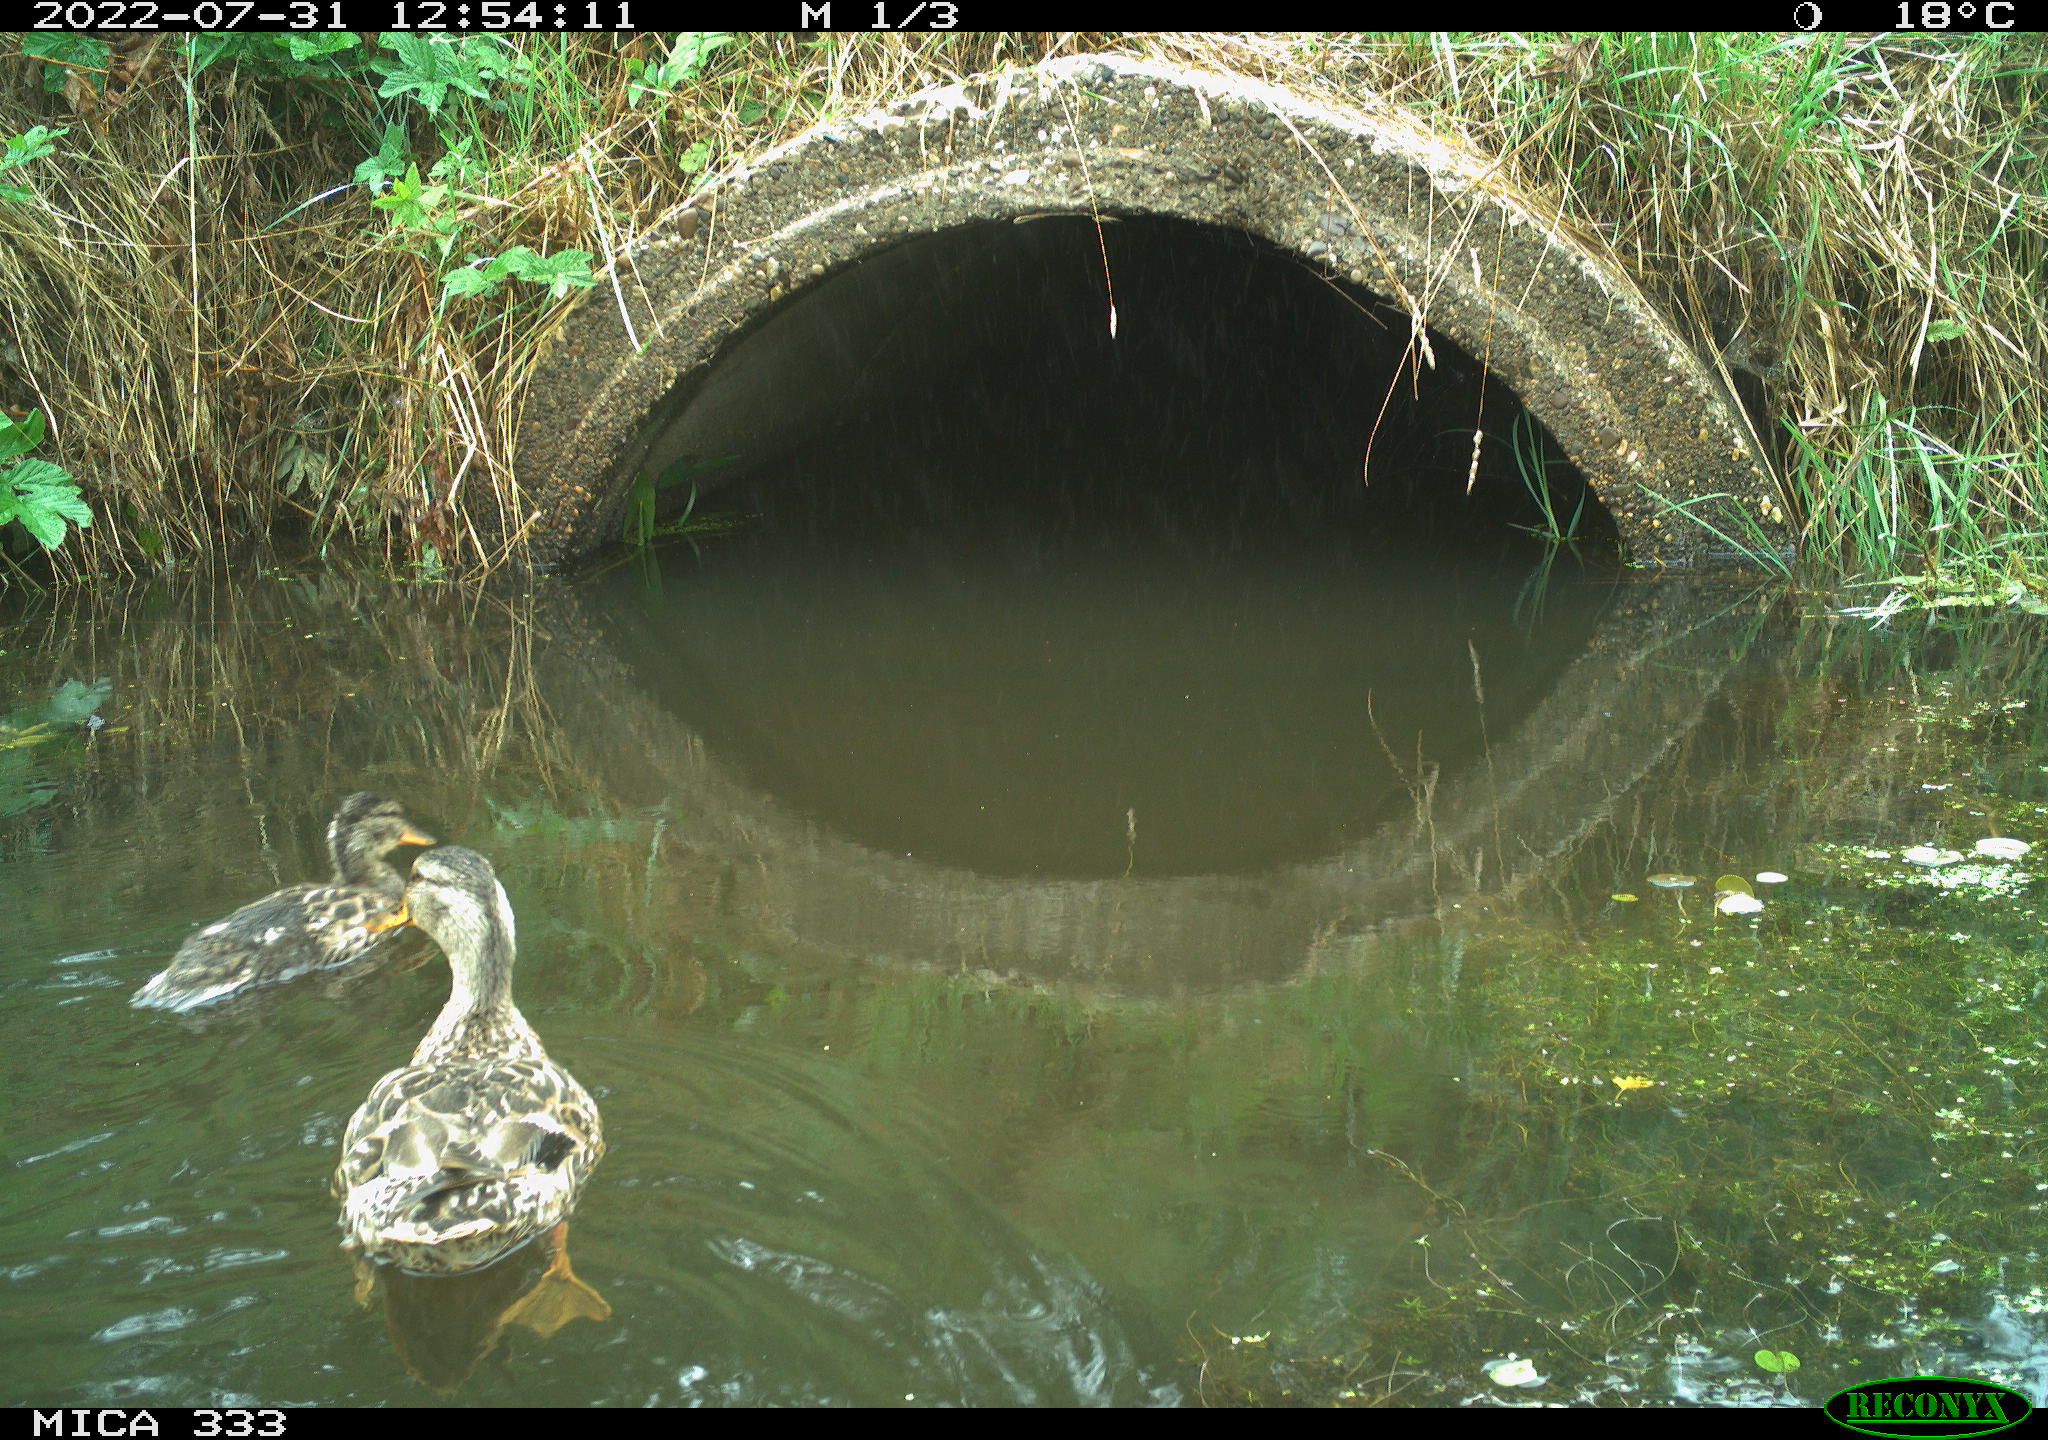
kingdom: Animalia
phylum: Chordata
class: Aves
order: Anseriformes
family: Anatidae
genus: Anas
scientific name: Anas platyrhynchos
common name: Mallard
